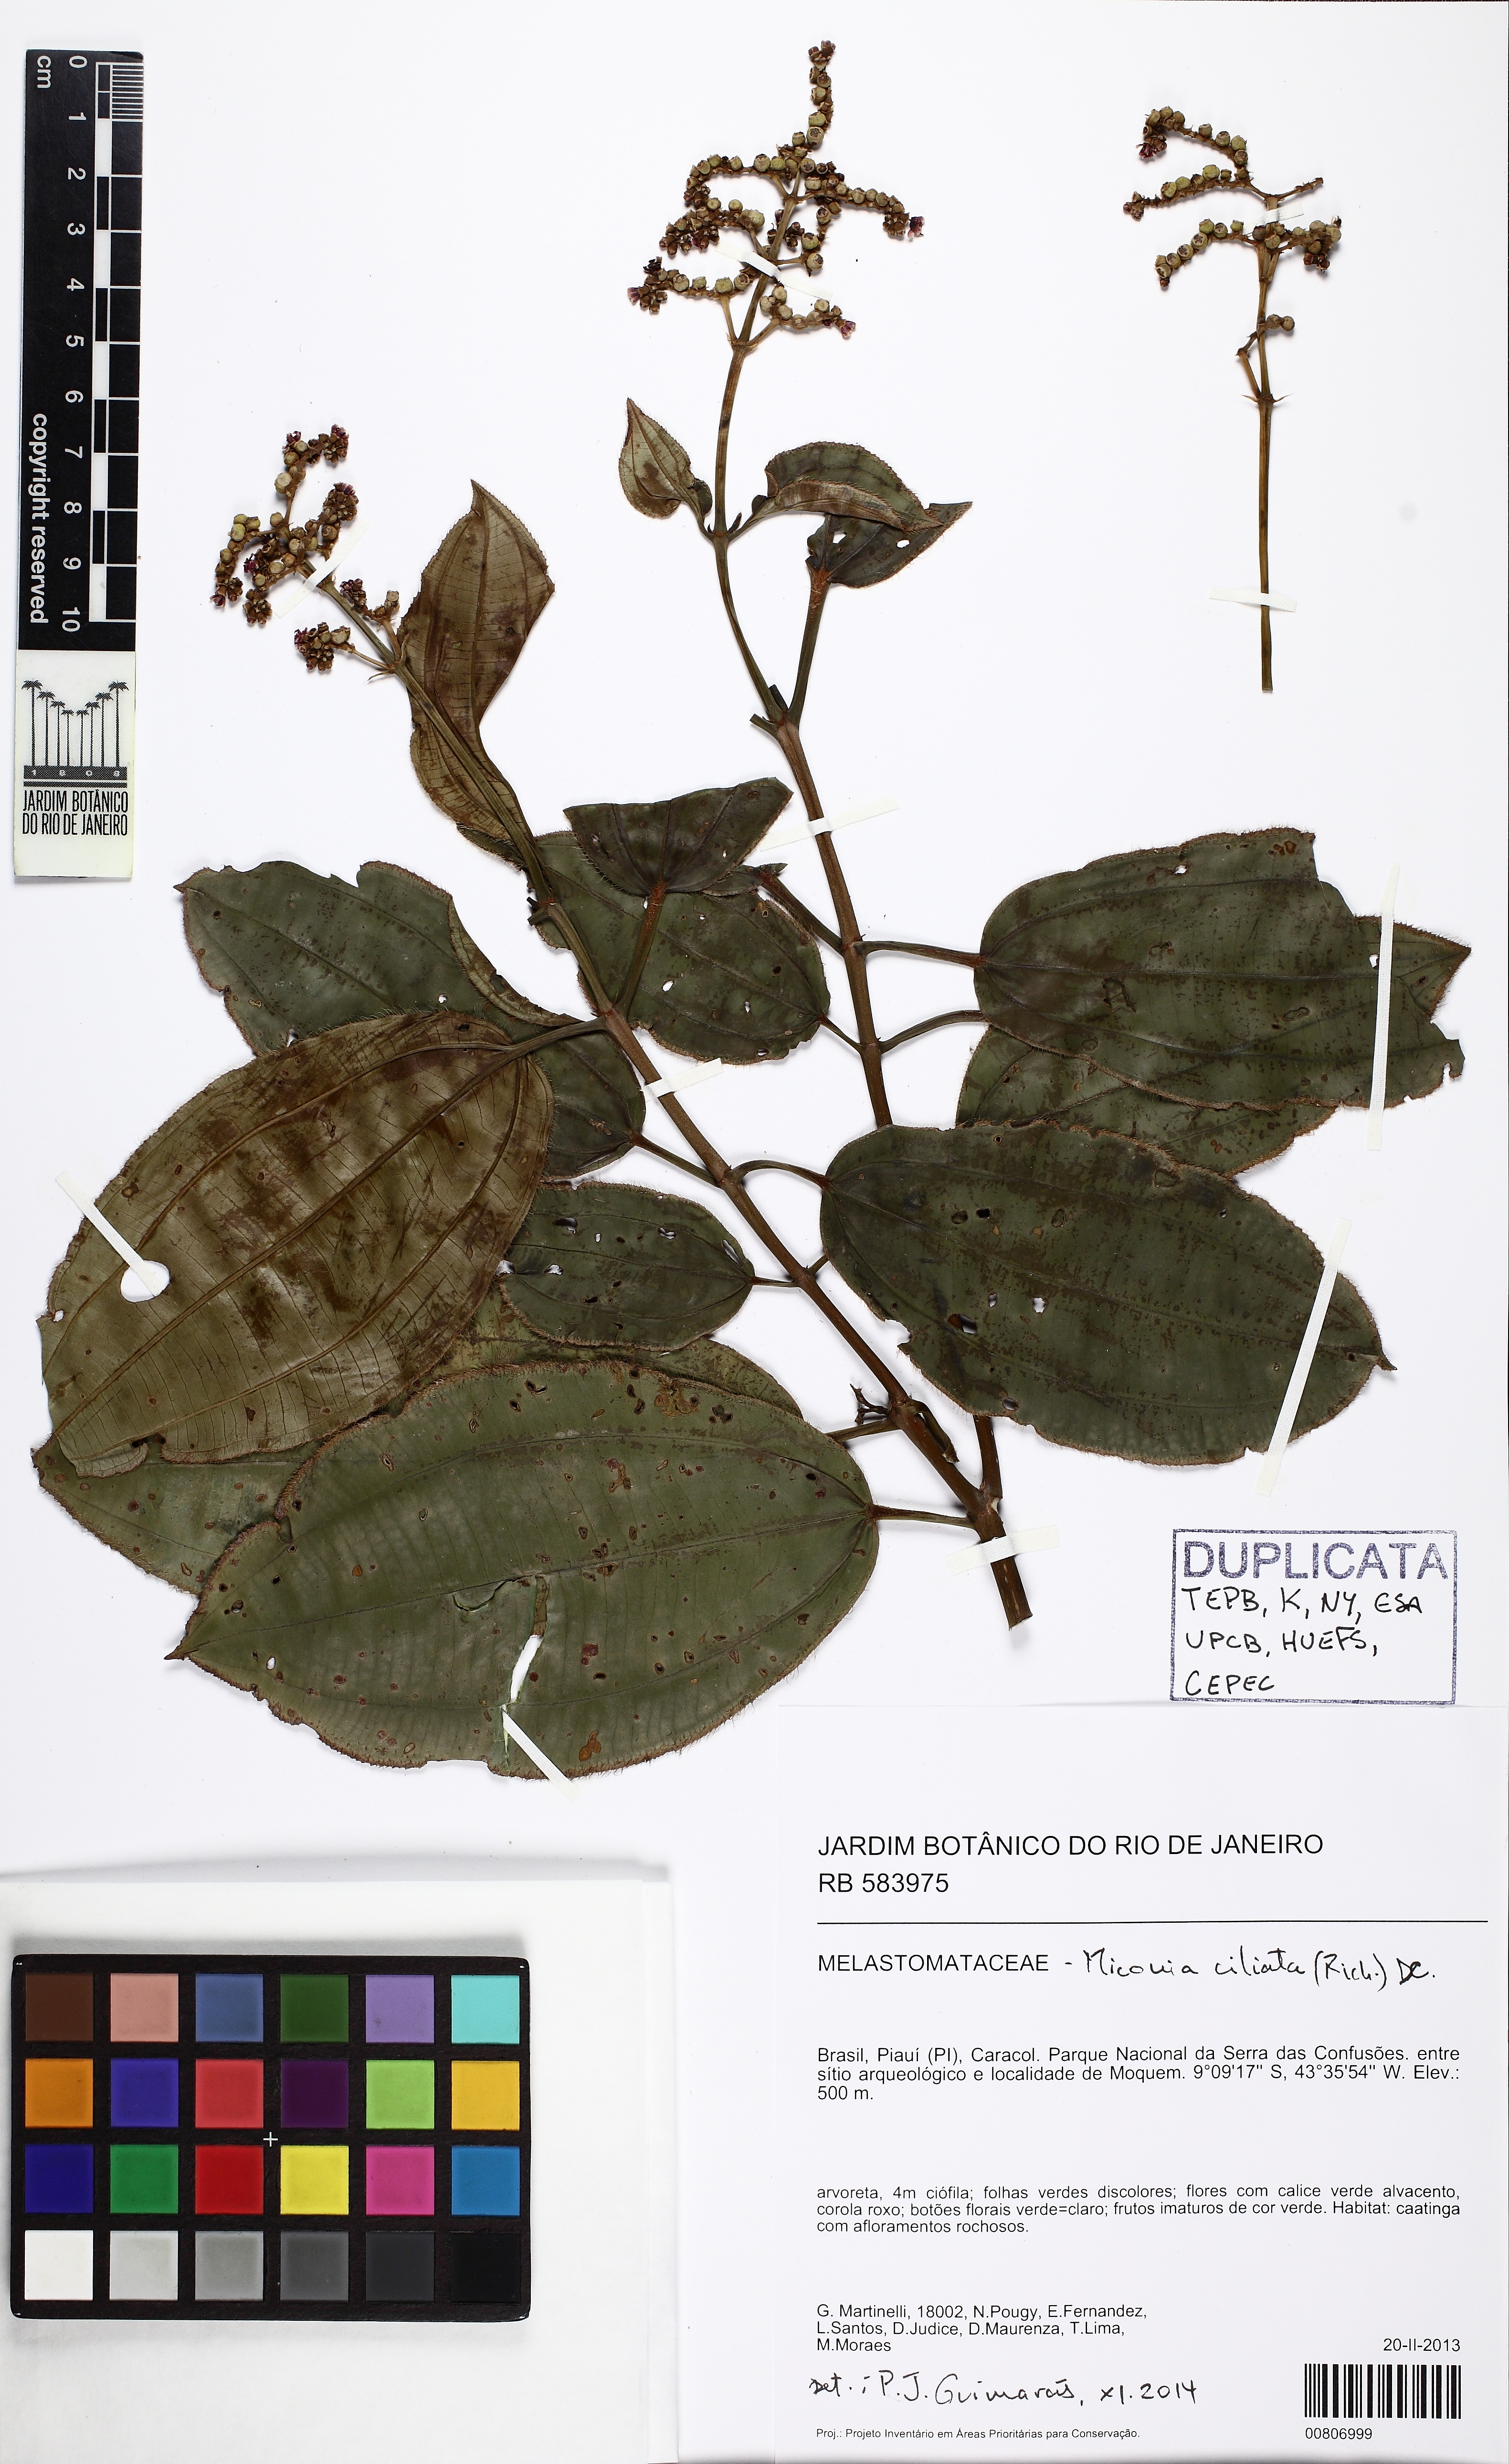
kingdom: Plantae
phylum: Tracheophyta
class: Magnoliopsida
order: Myrtales
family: Melastomataceae
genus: Miconia
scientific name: Miconia ciliata
